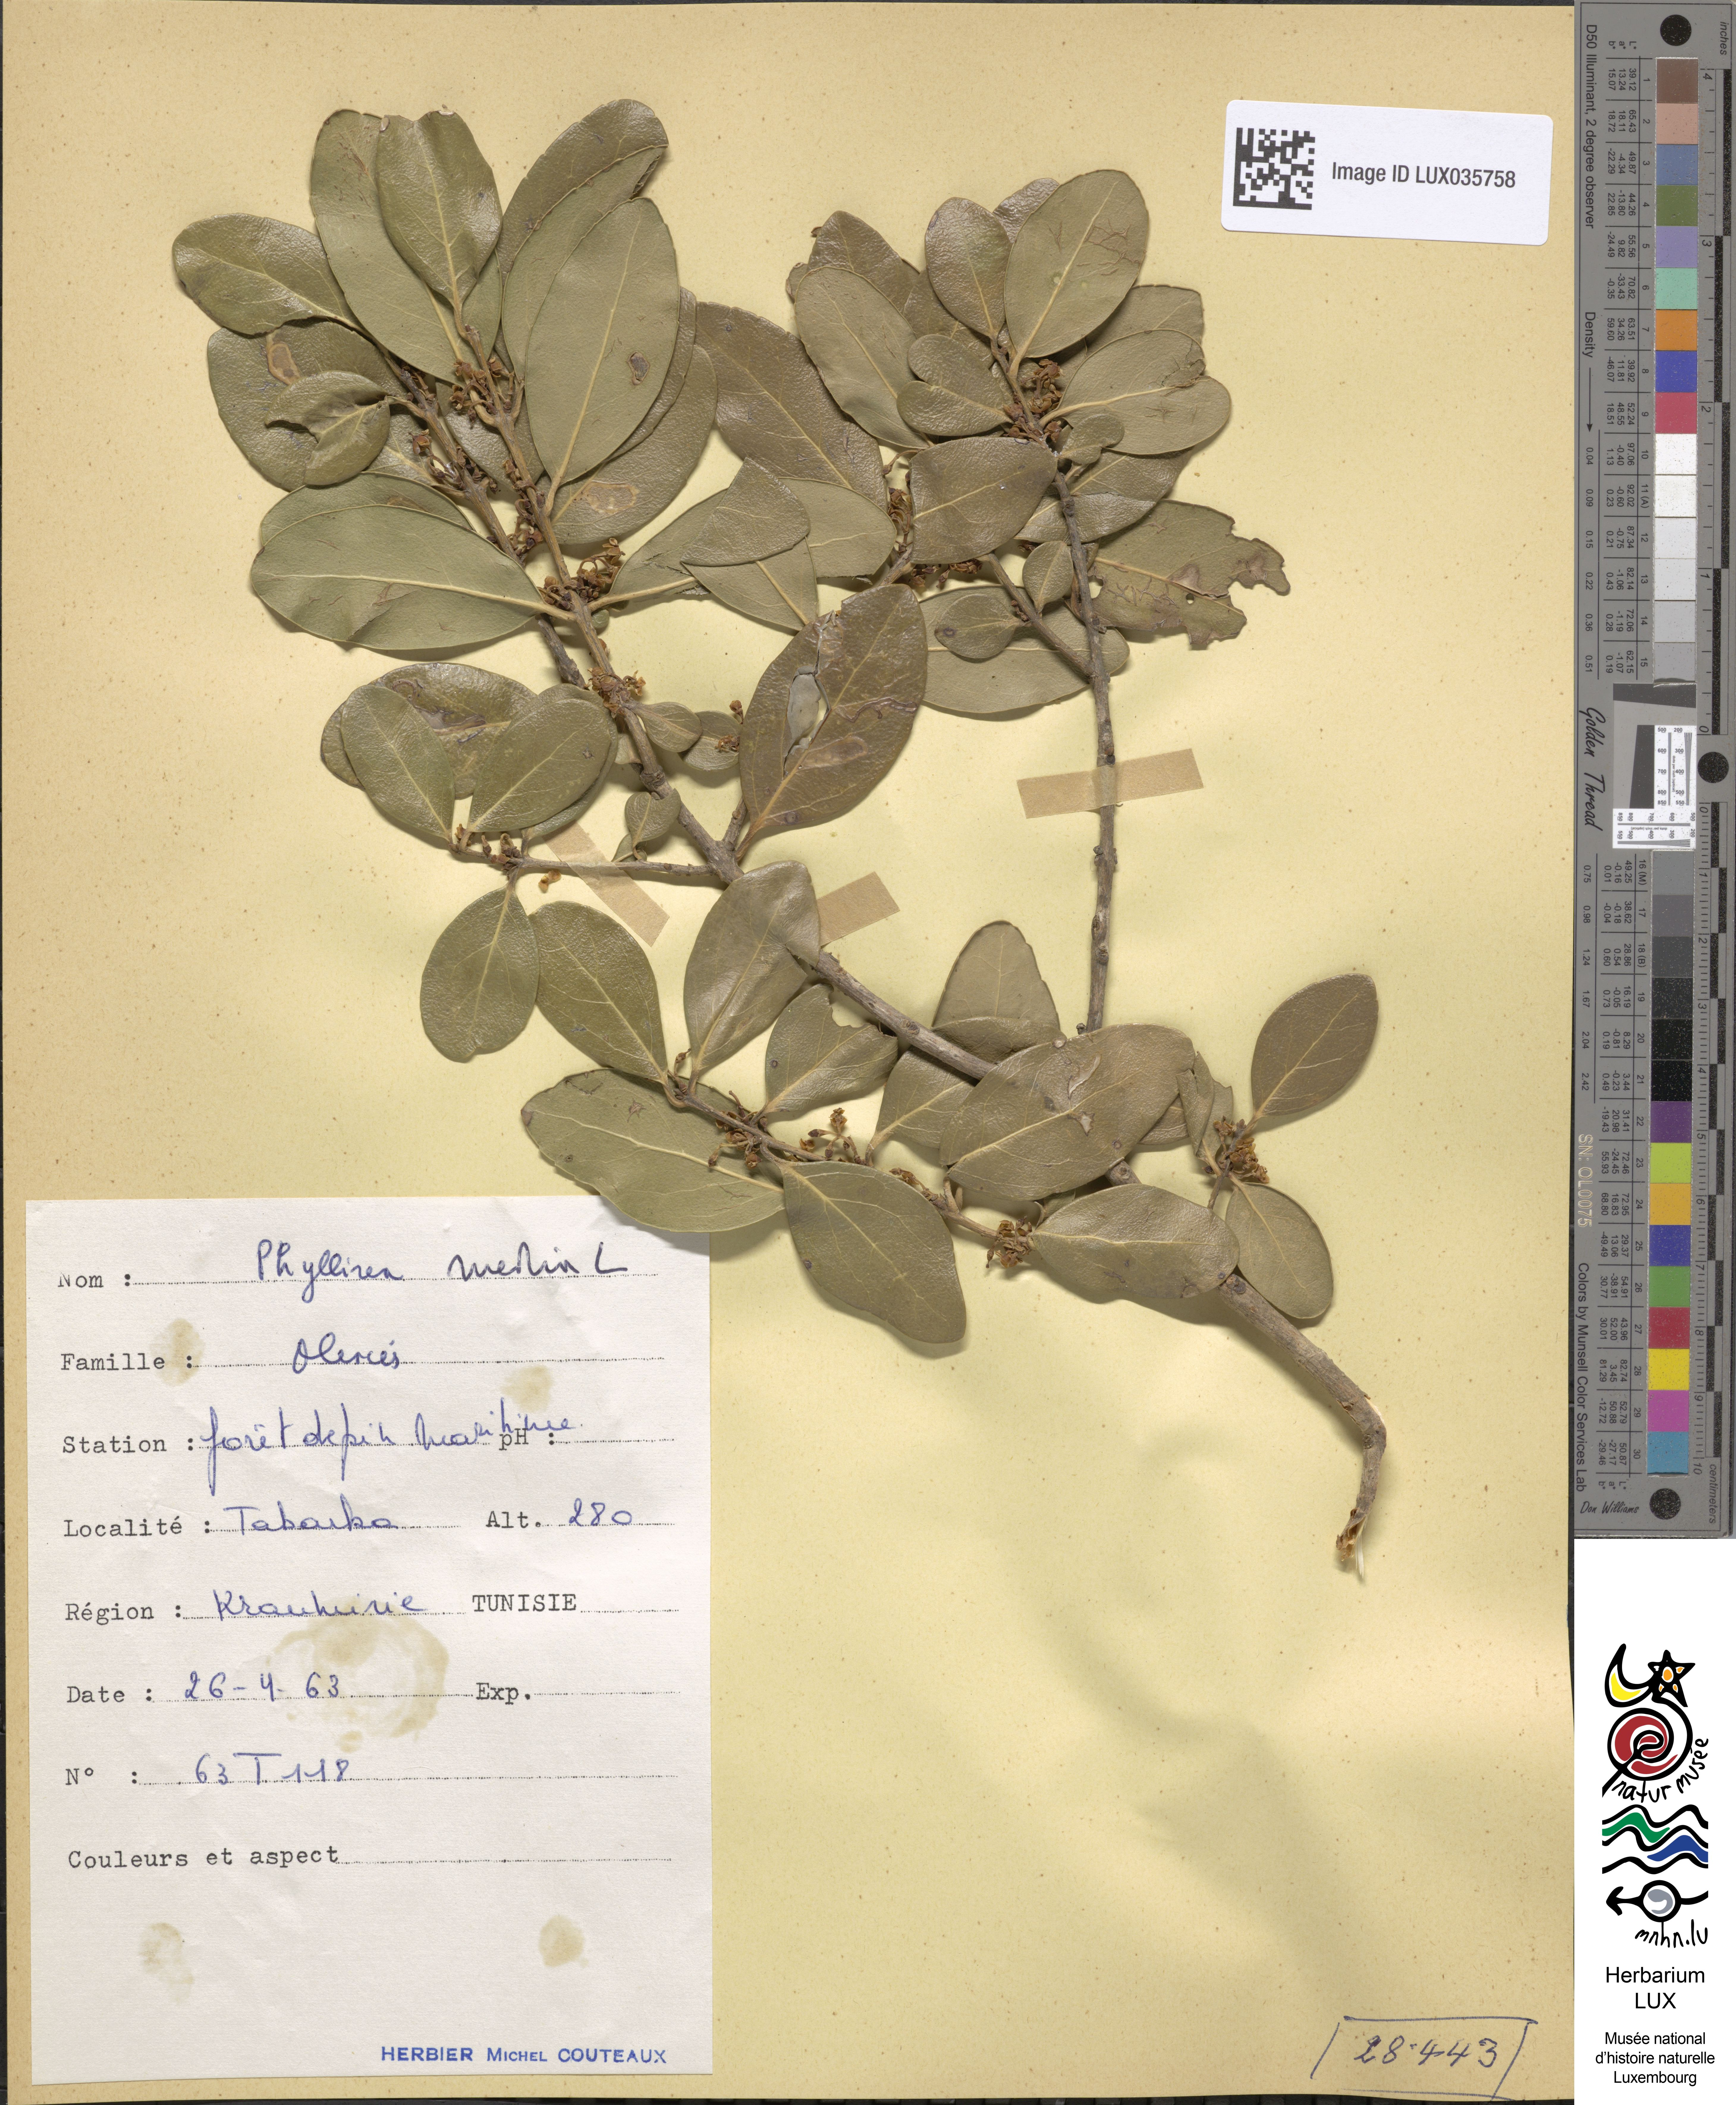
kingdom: Plantae
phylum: Tracheophyta
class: Magnoliopsida
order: Lamiales
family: Oleaceae
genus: Phillyrea
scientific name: Phillyrea latifolia
